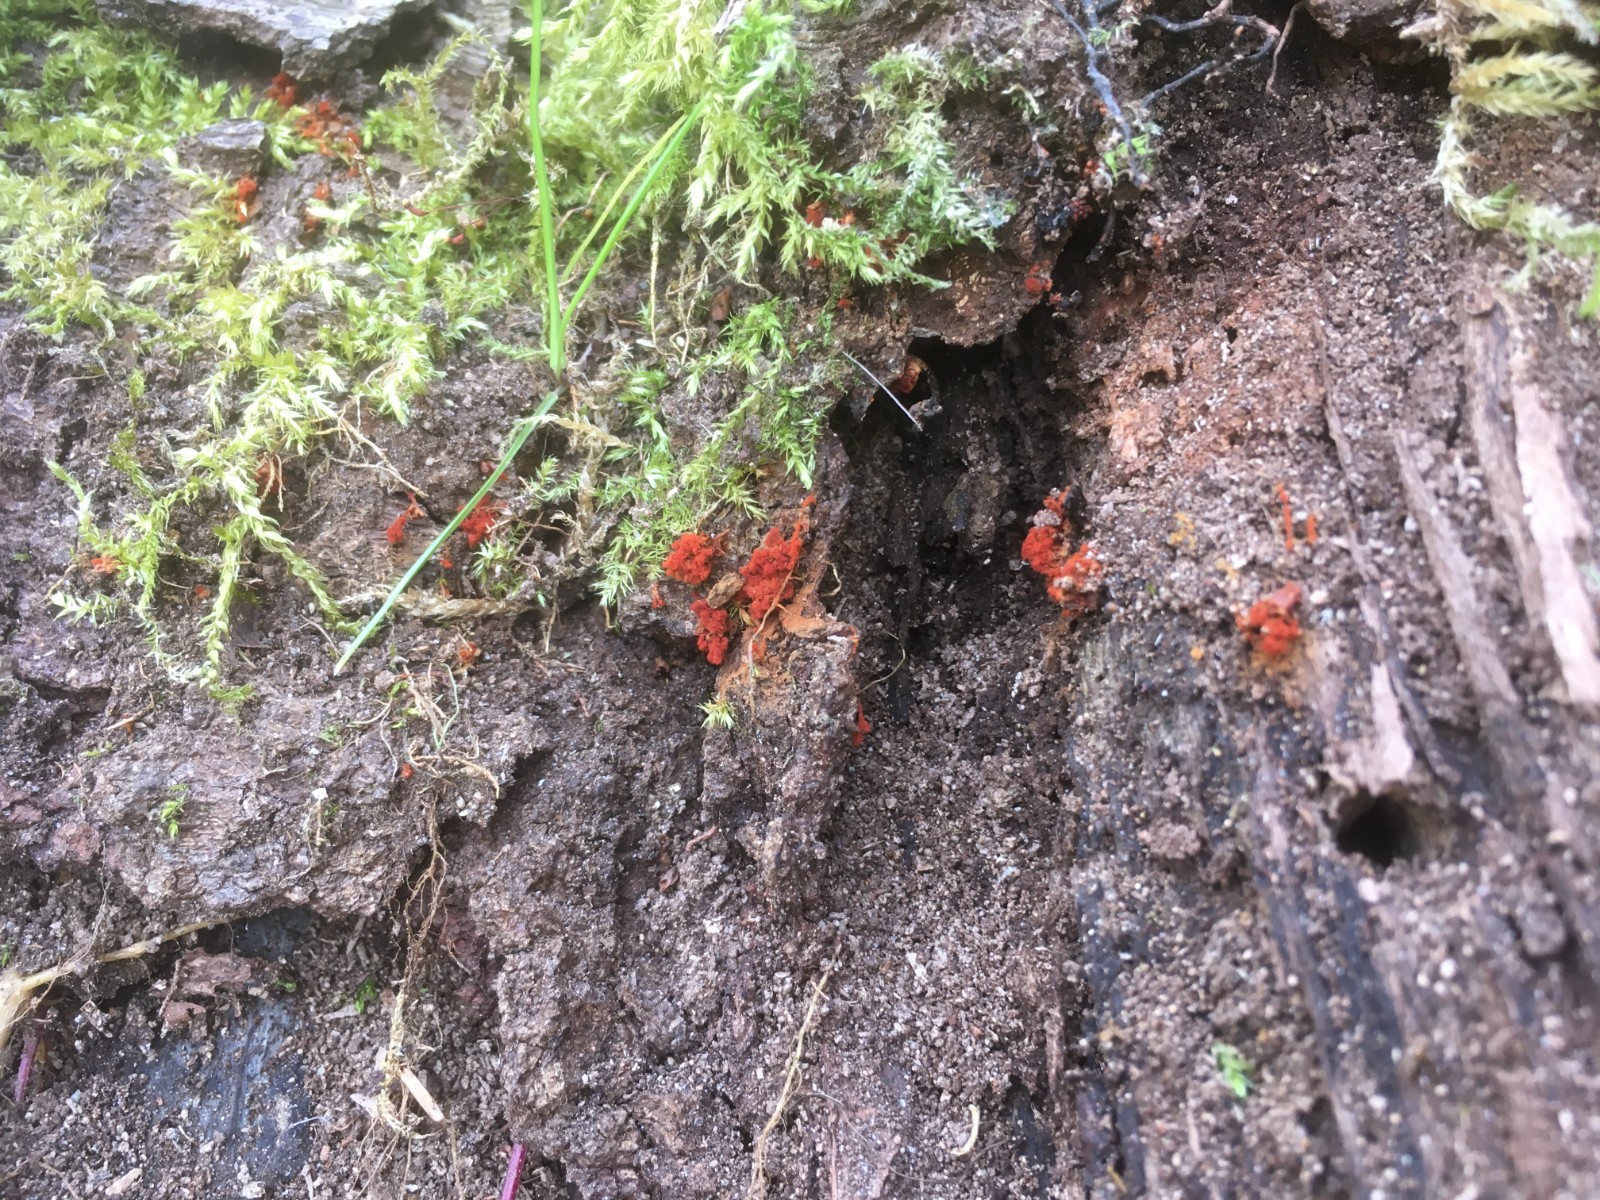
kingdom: Protozoa
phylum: Mycetozoa
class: Myxomycetes
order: Trichiales
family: Trichiaceae
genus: Metatrichia
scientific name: Metatrichia vesparia
